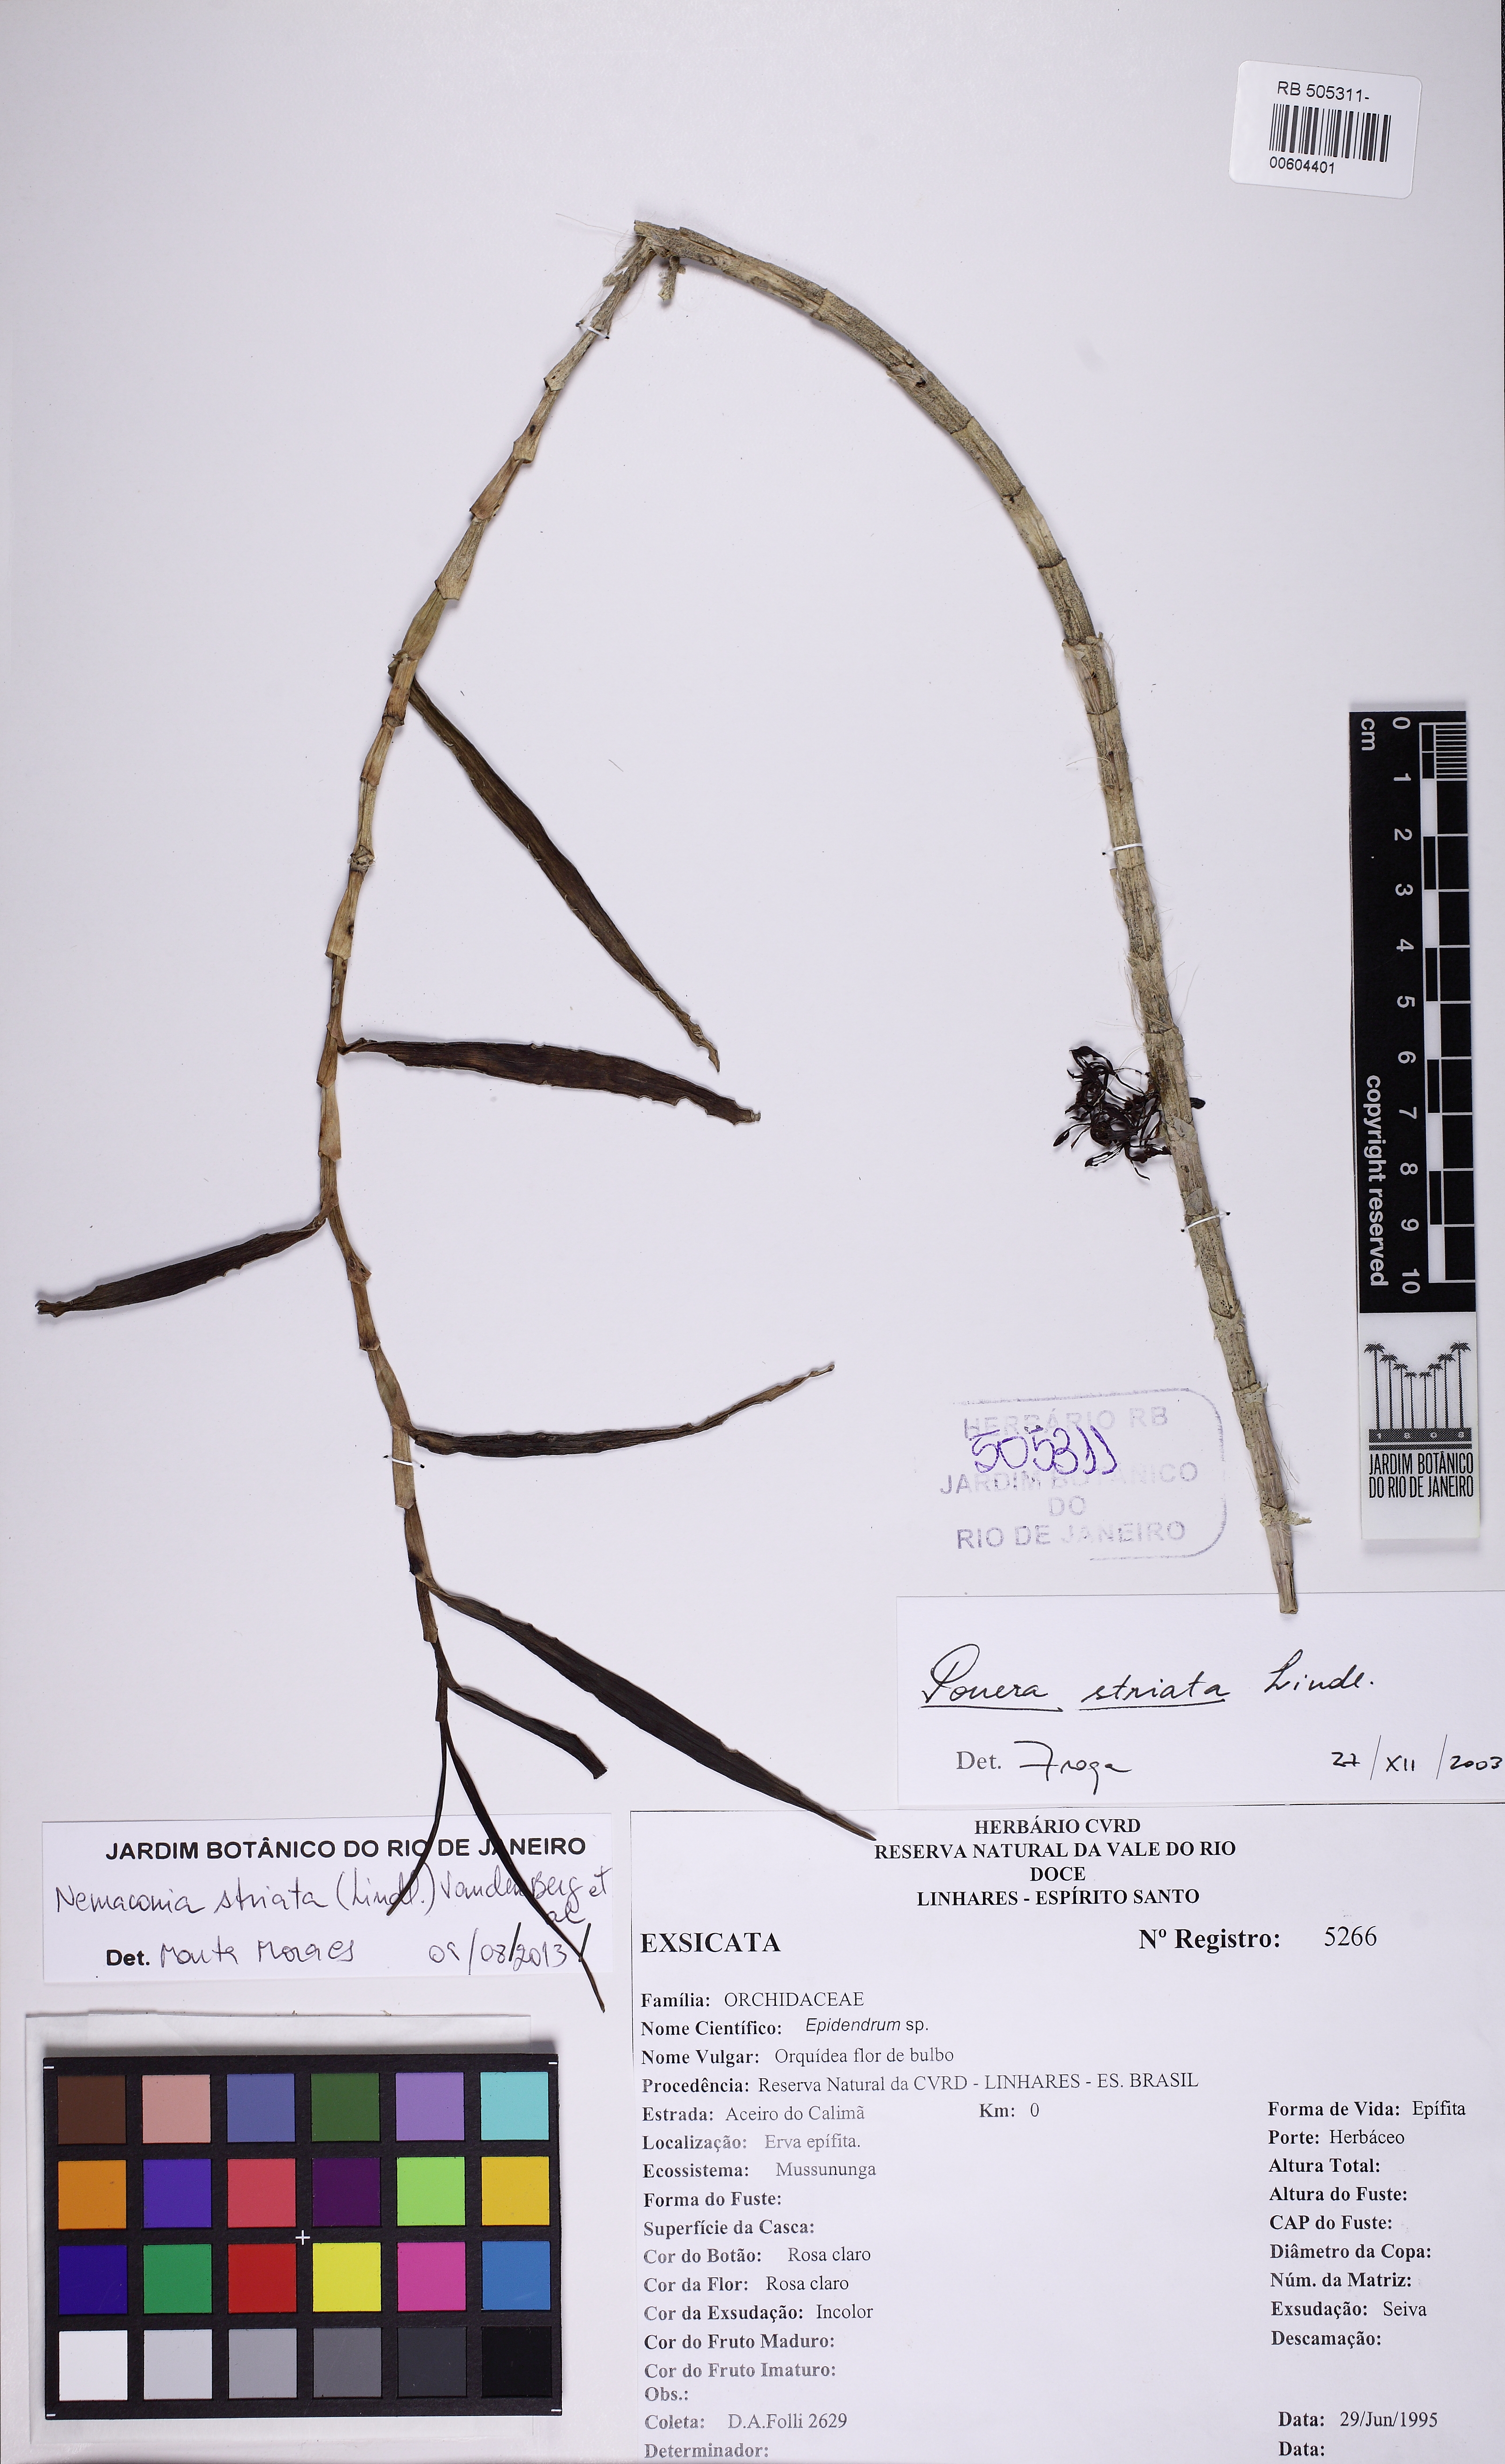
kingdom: Plantae
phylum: Tracheophyta
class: Liliopsida
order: Asparagales
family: Orchidaceae
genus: Nemaconia
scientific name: Nemaconia striata
